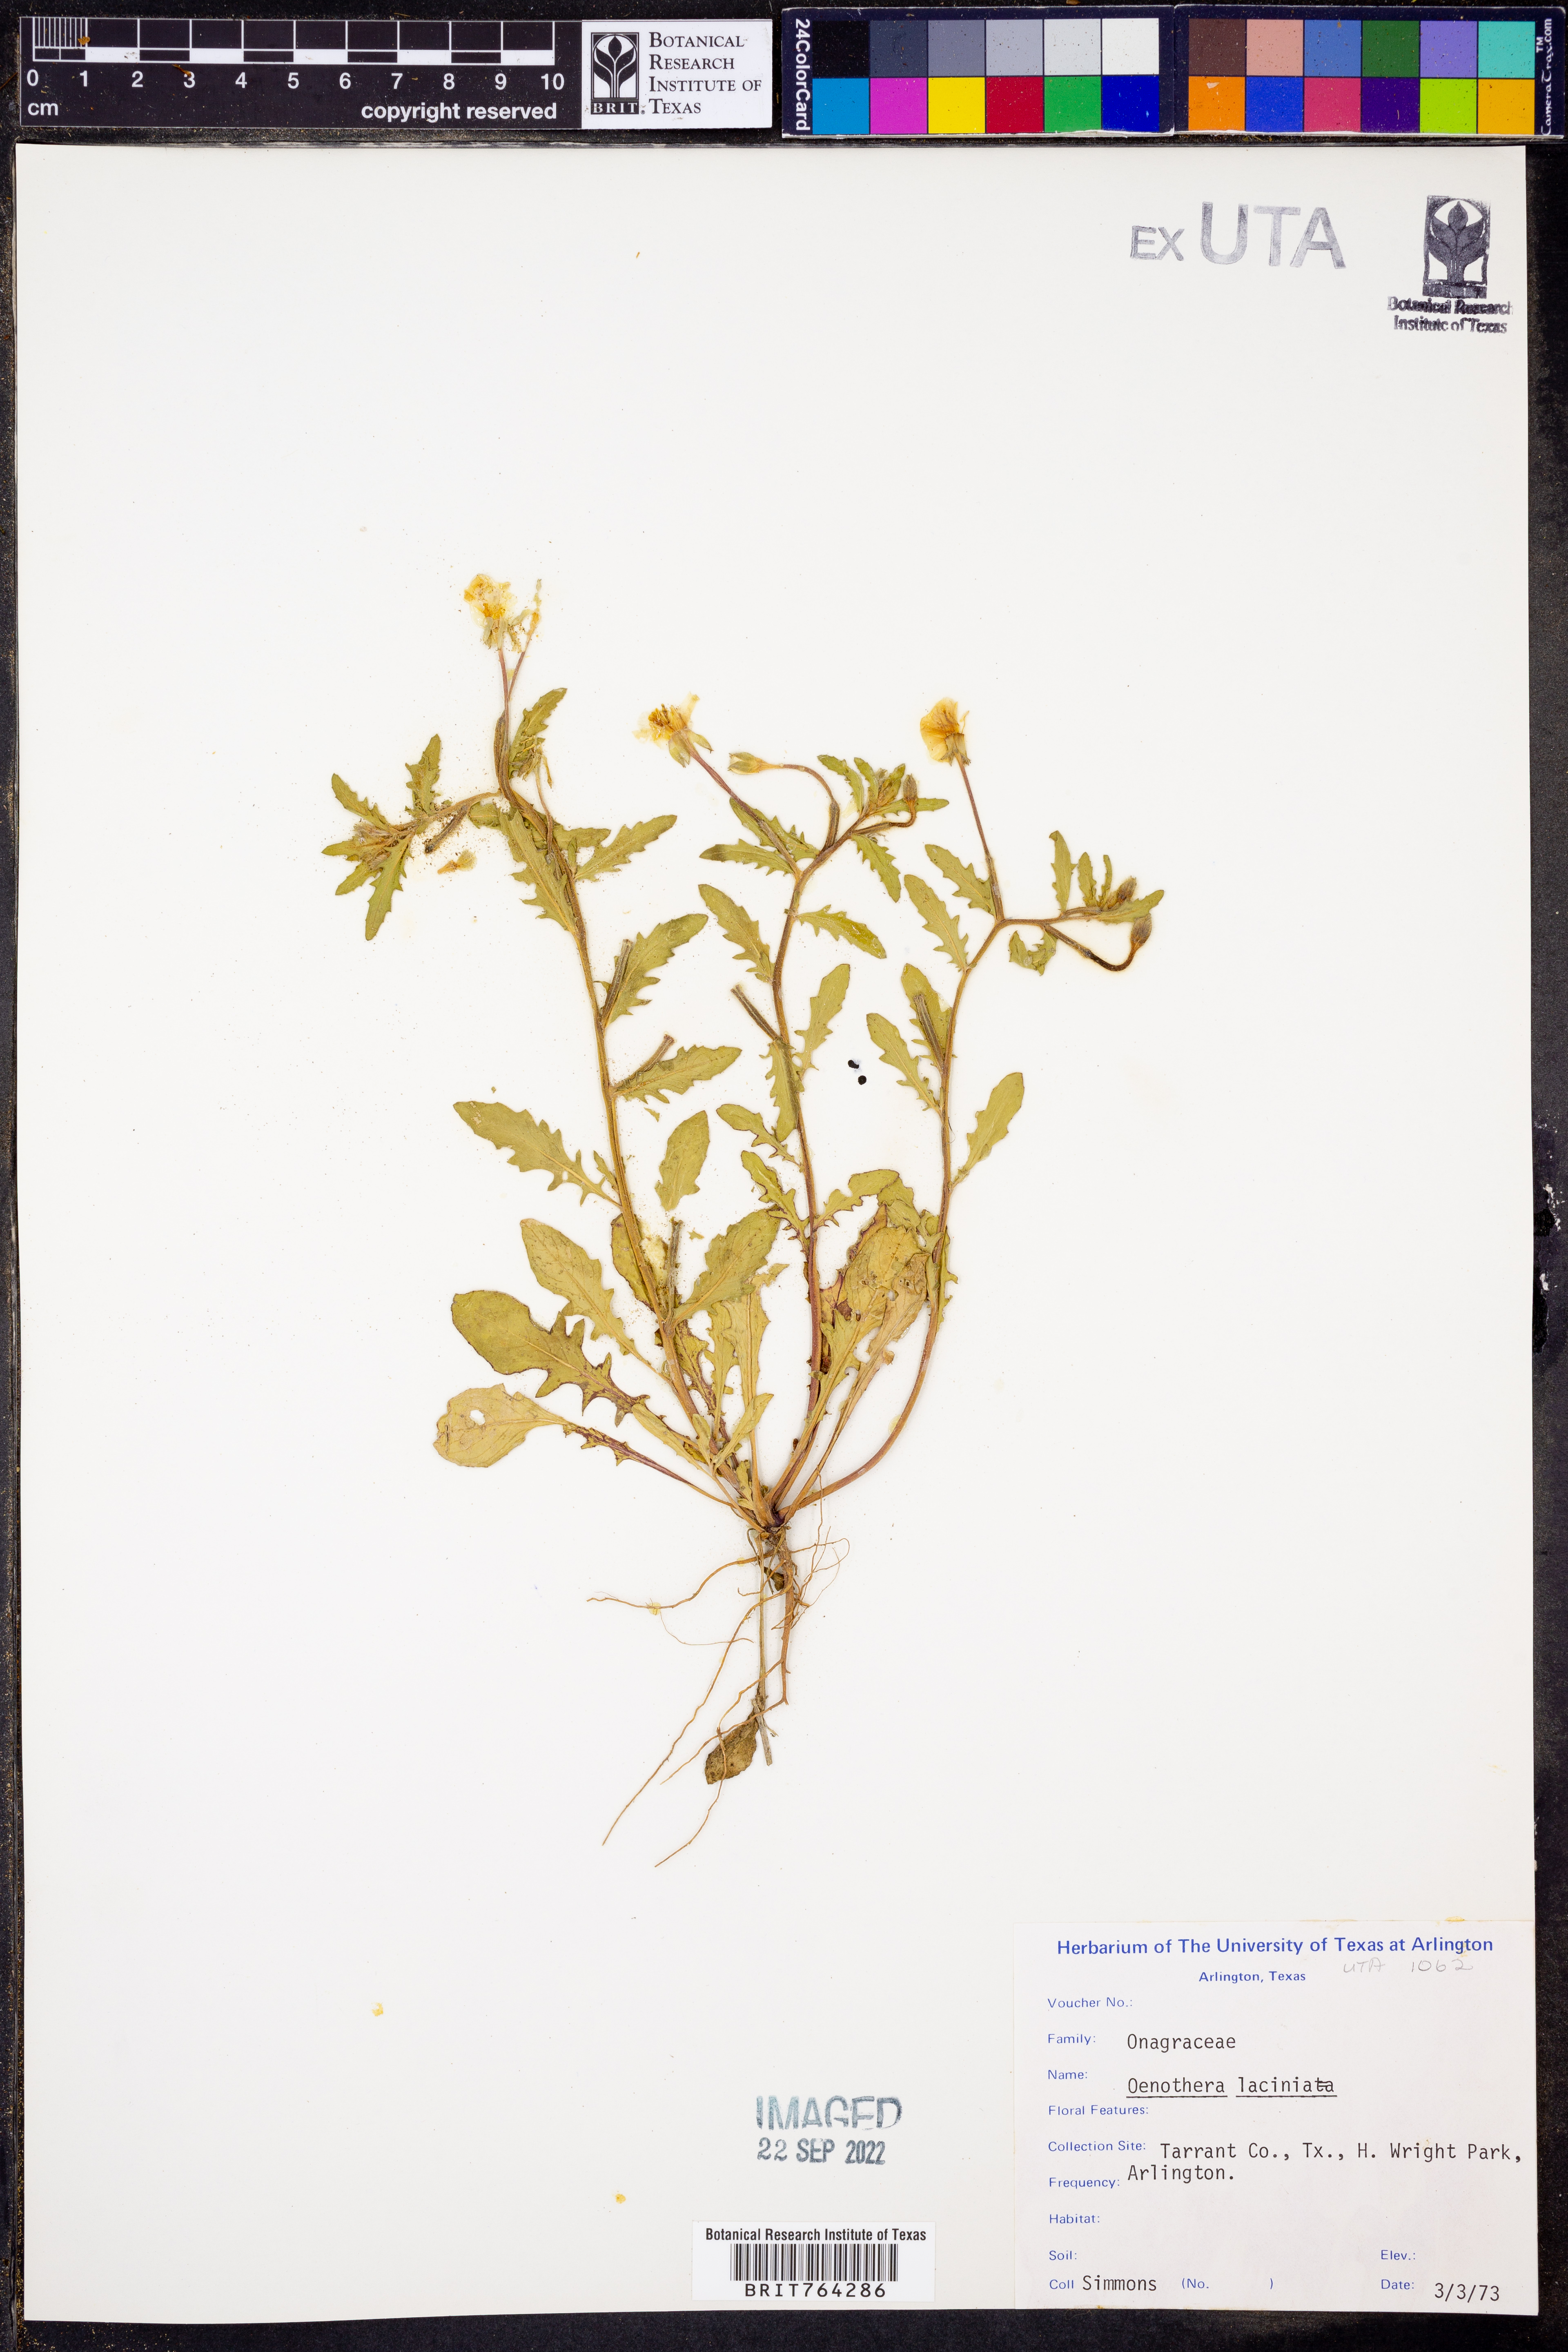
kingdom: Plantae
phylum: Tracheophyta
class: Magnoliopsida
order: Myrtales
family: Onagraceae
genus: Oenothera
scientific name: Oenothera laciniata
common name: Cut-leaved evening-primrose
